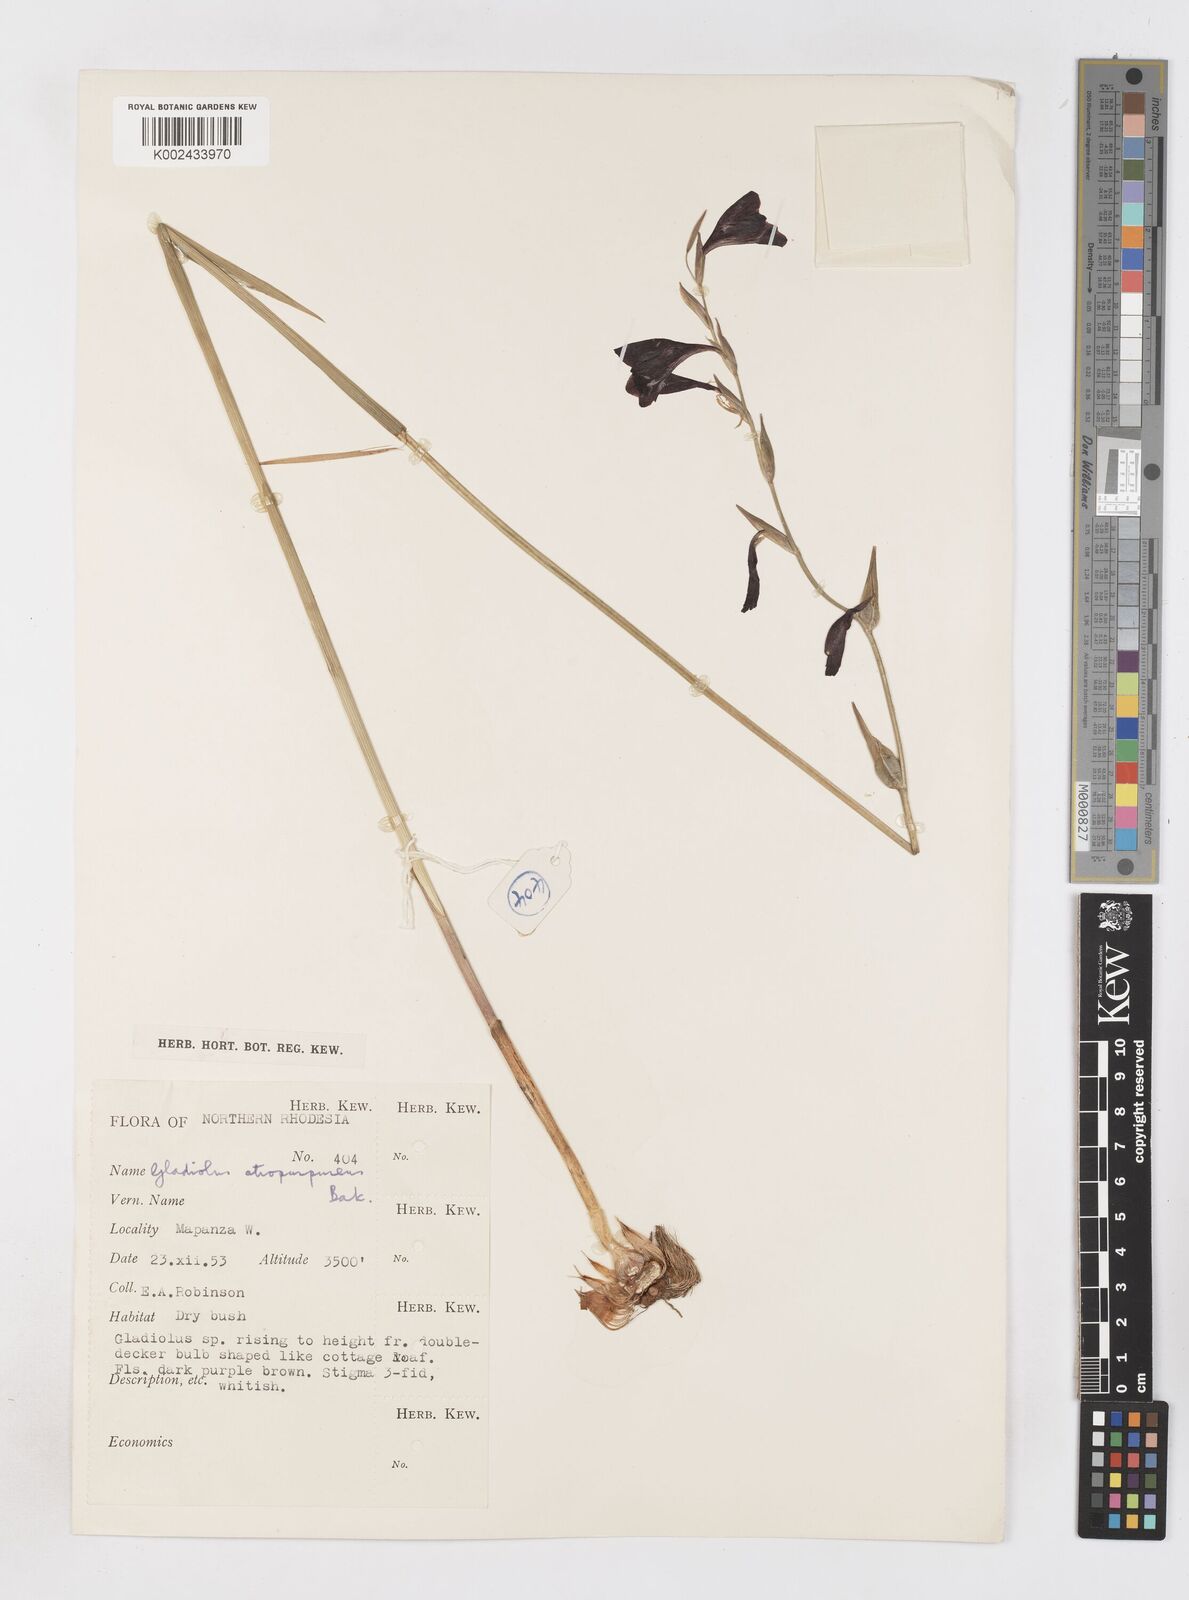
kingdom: Plantae
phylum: Tracheophyta
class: Liliopsida
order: Asparagales
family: Iridaceae
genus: Gladiolus
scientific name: Gladiolus atropurpureus
